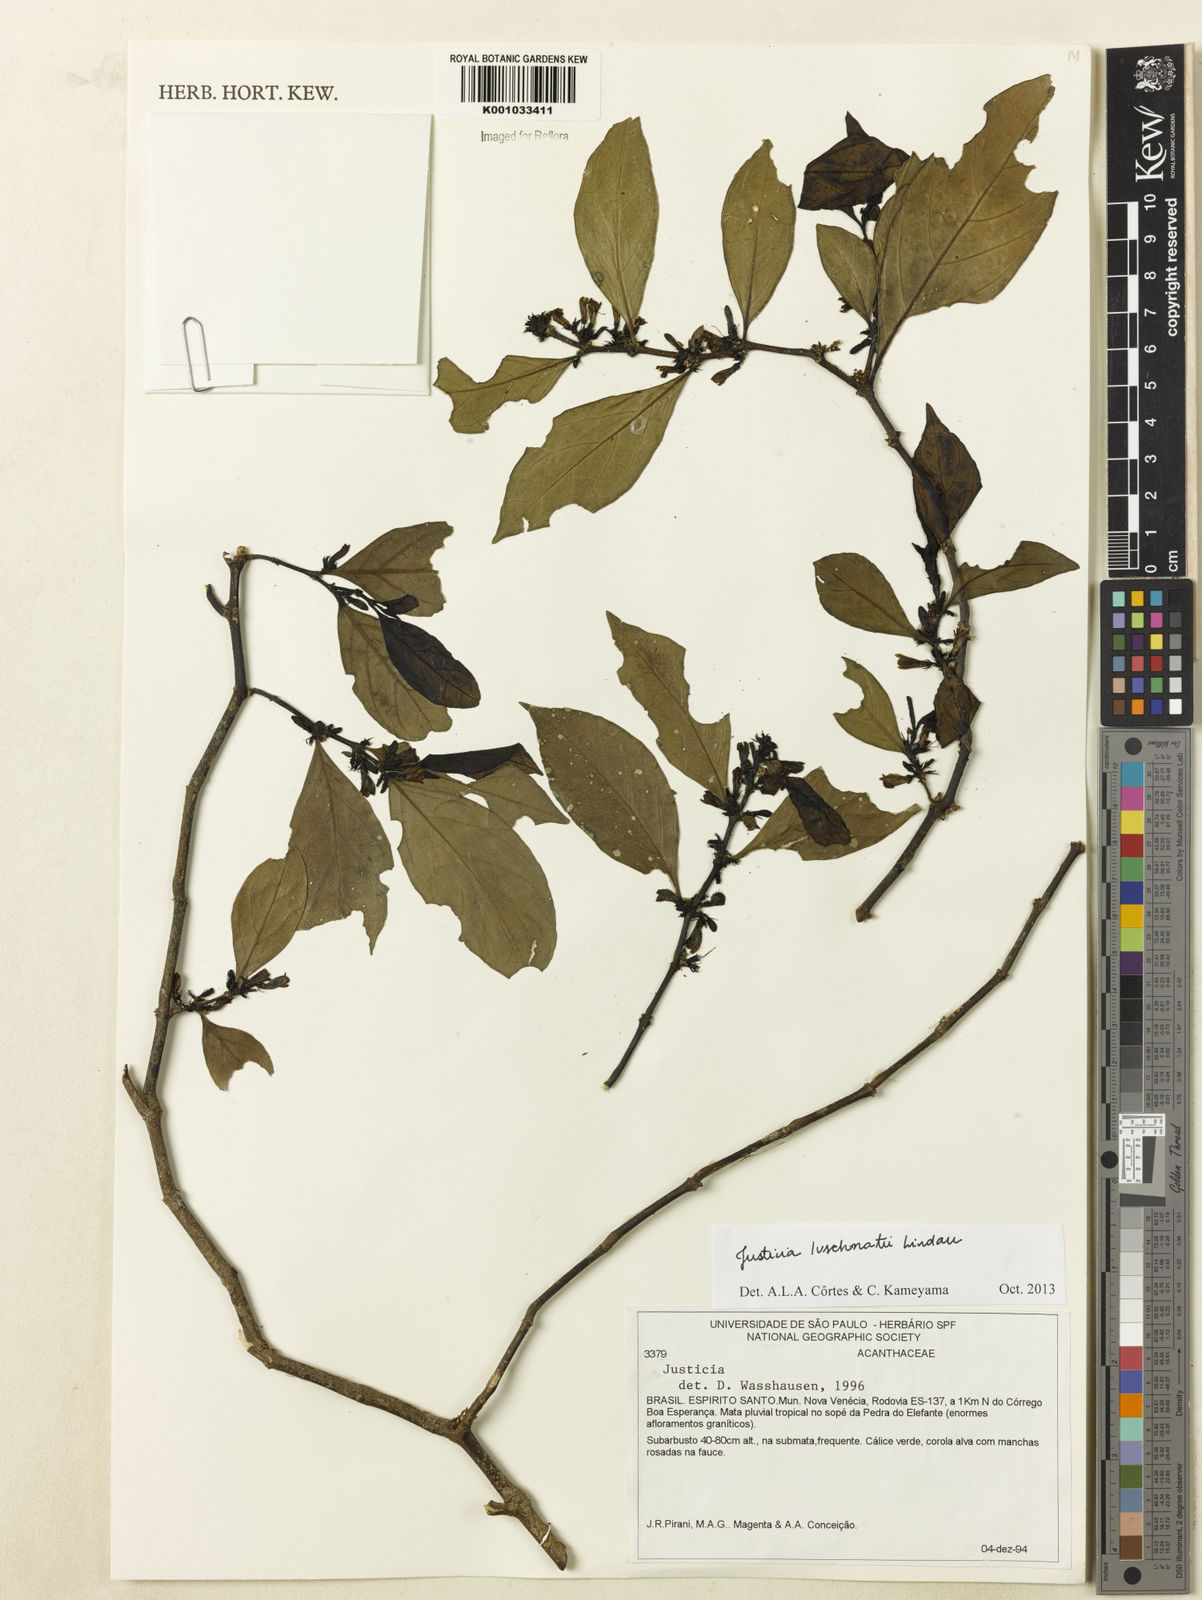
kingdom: Plantae
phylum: Tracheophyta
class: Magnoliopsida
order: Lamiales
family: Acanthaceae
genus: Justicia
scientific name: Justicia luschnathii
